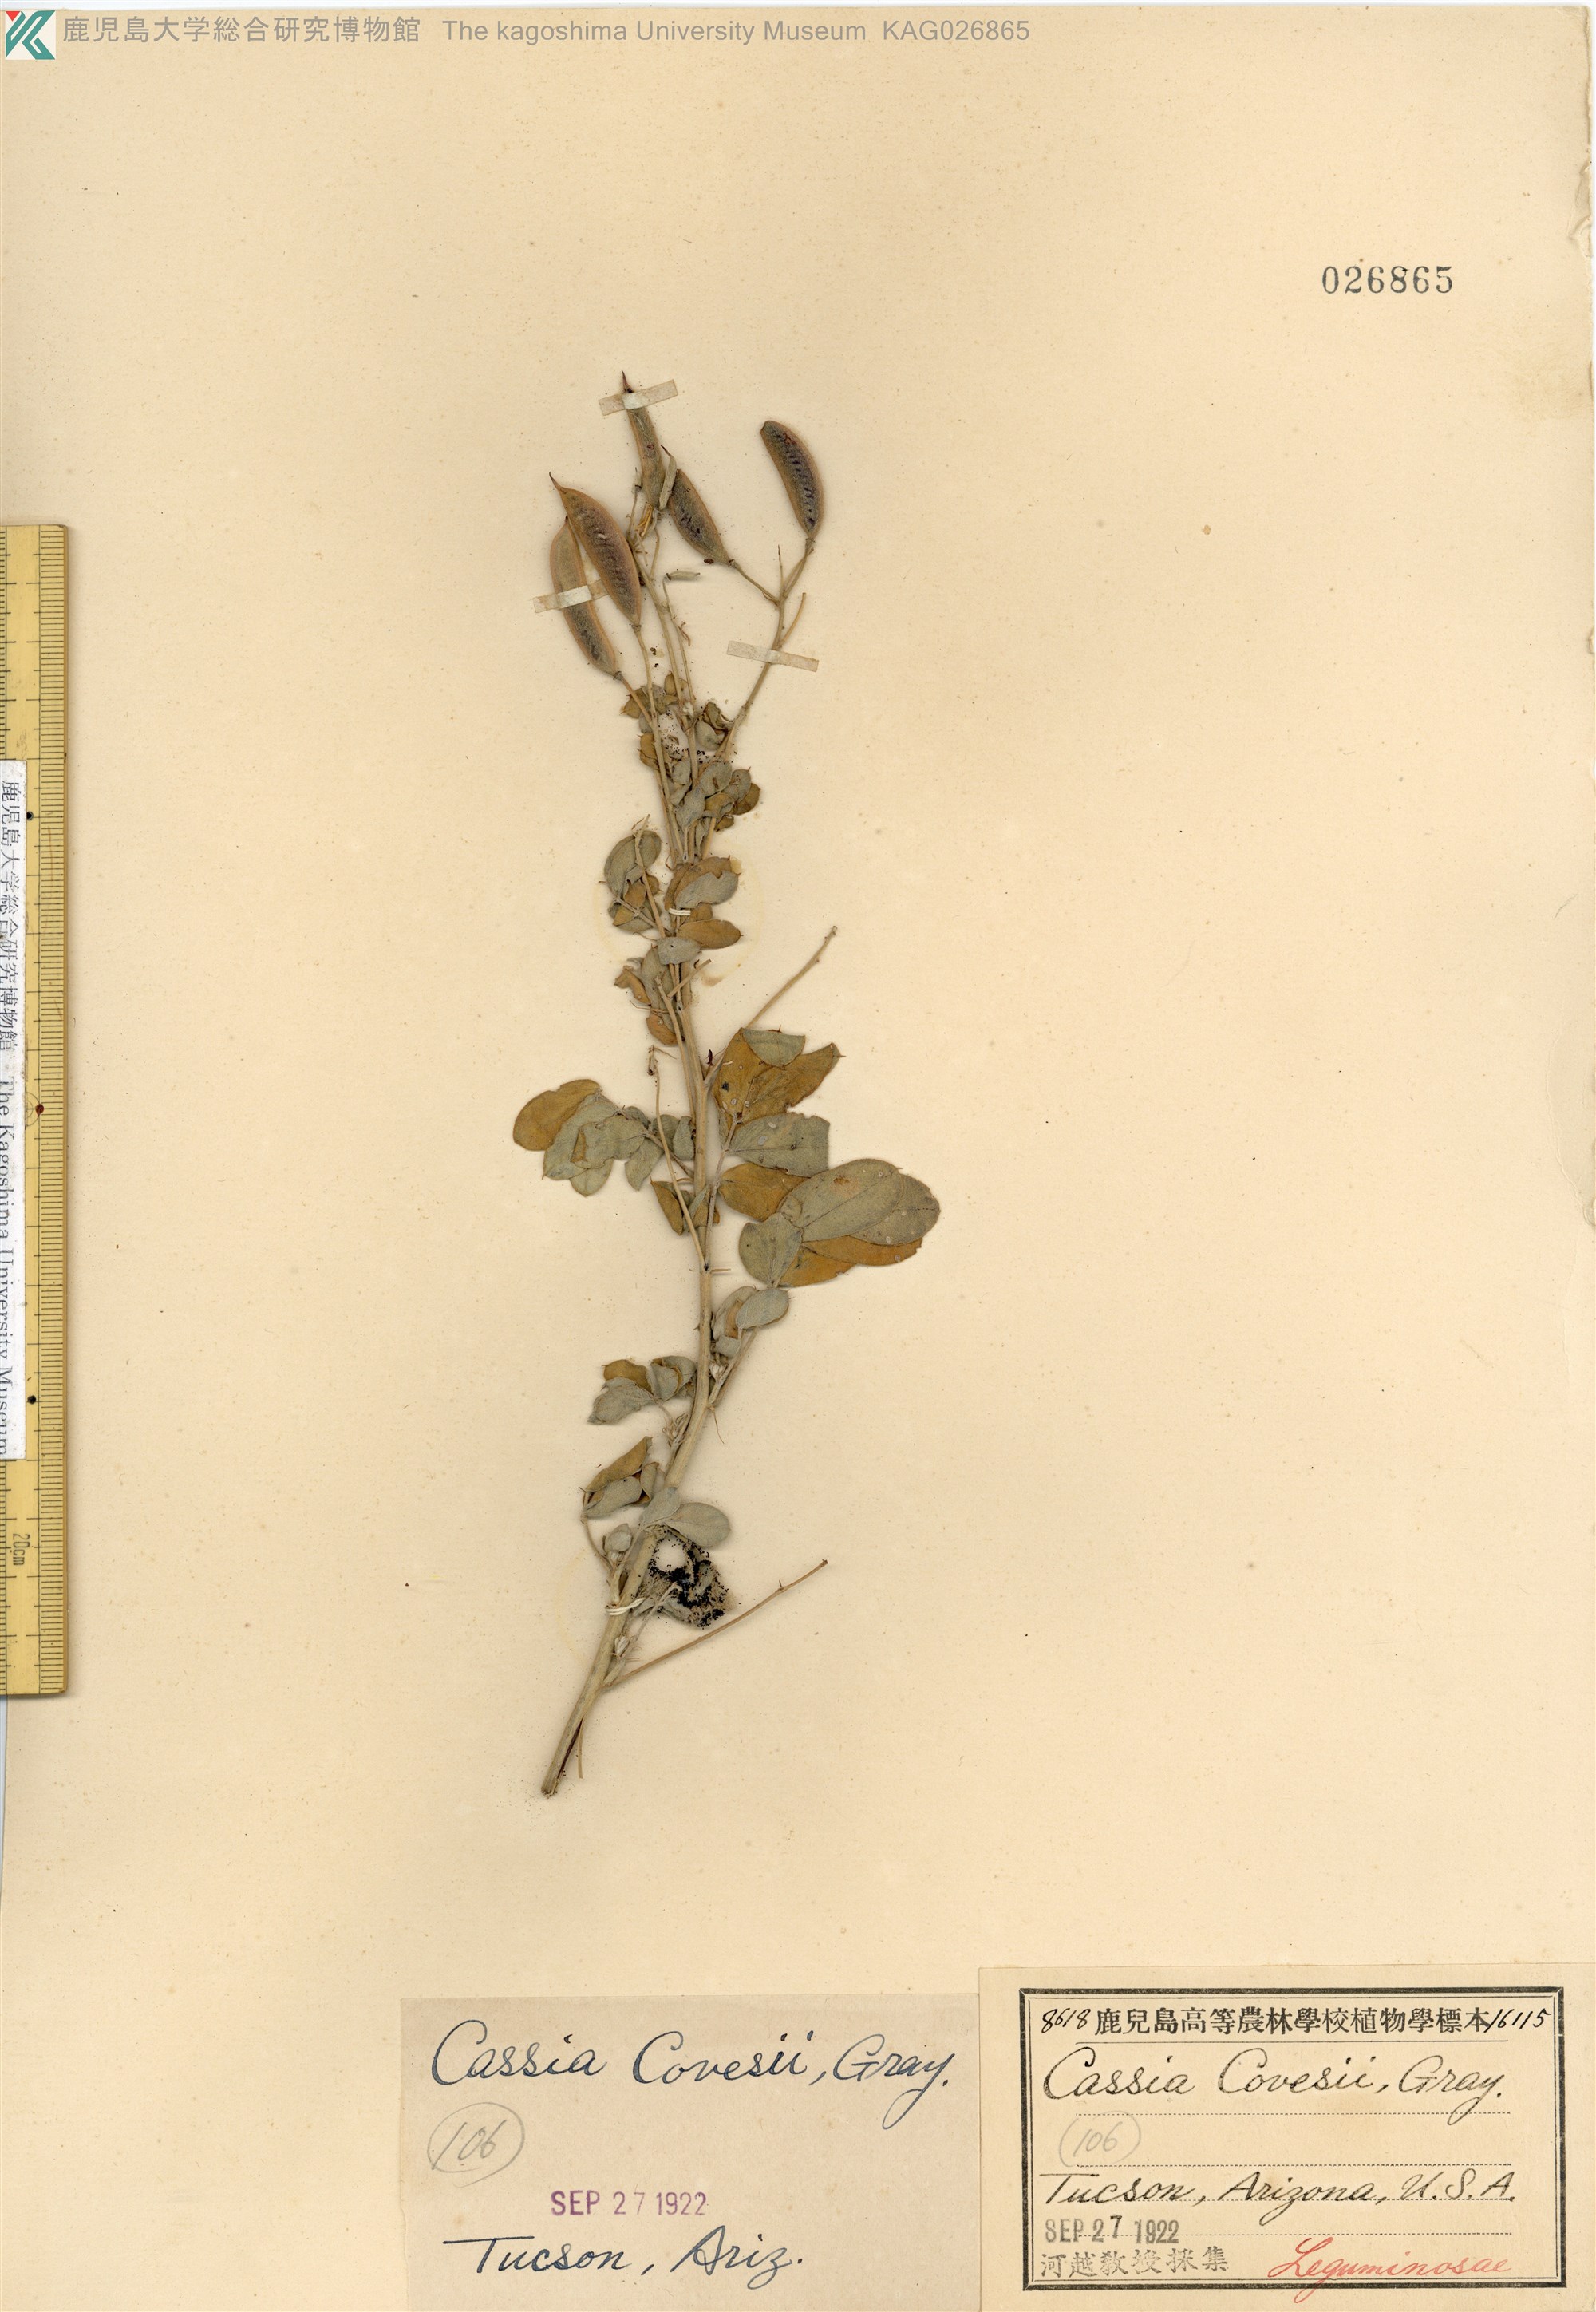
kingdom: Plantae
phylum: Tracheophyta
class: Magnoliopsida
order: Fabales
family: Fabaceae
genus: Senna
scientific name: Senna covesii
